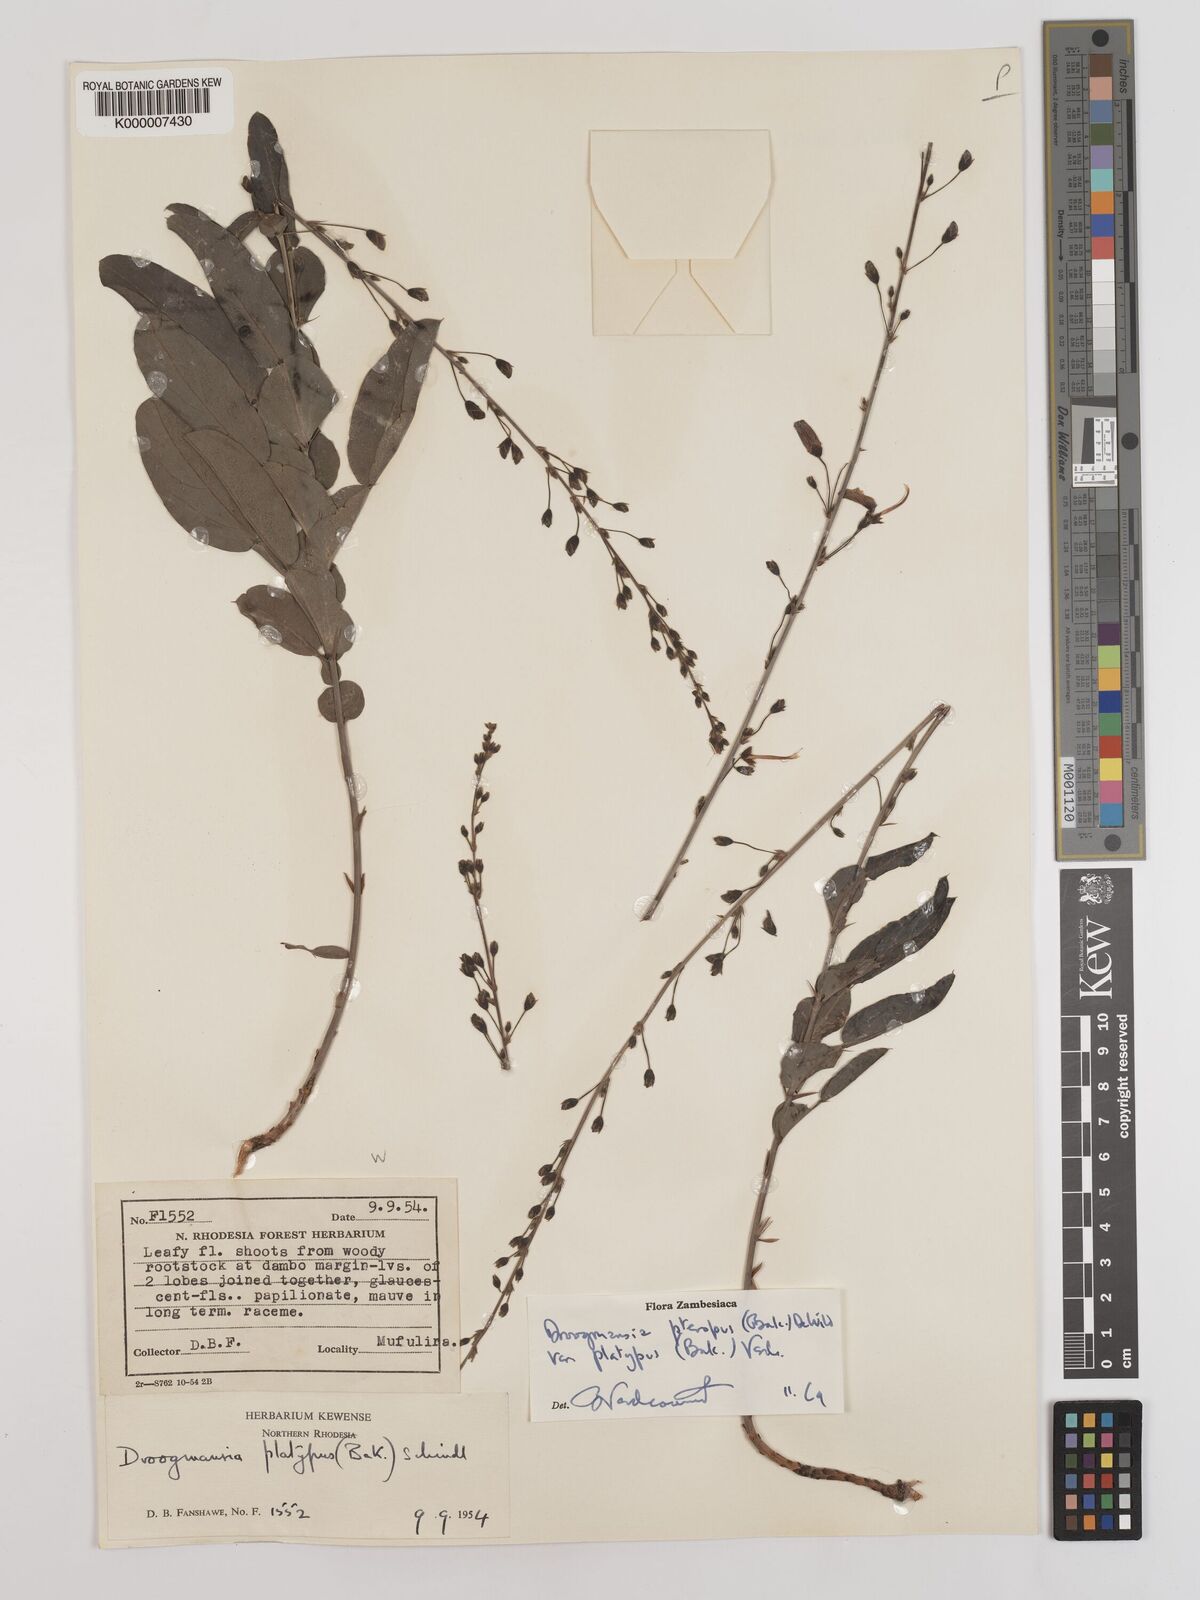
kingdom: Plantae
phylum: Tracheophyta
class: Magnoliopsida
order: Fabales
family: Fabaceae
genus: Droogmansia
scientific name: Droogmansia pteropus
